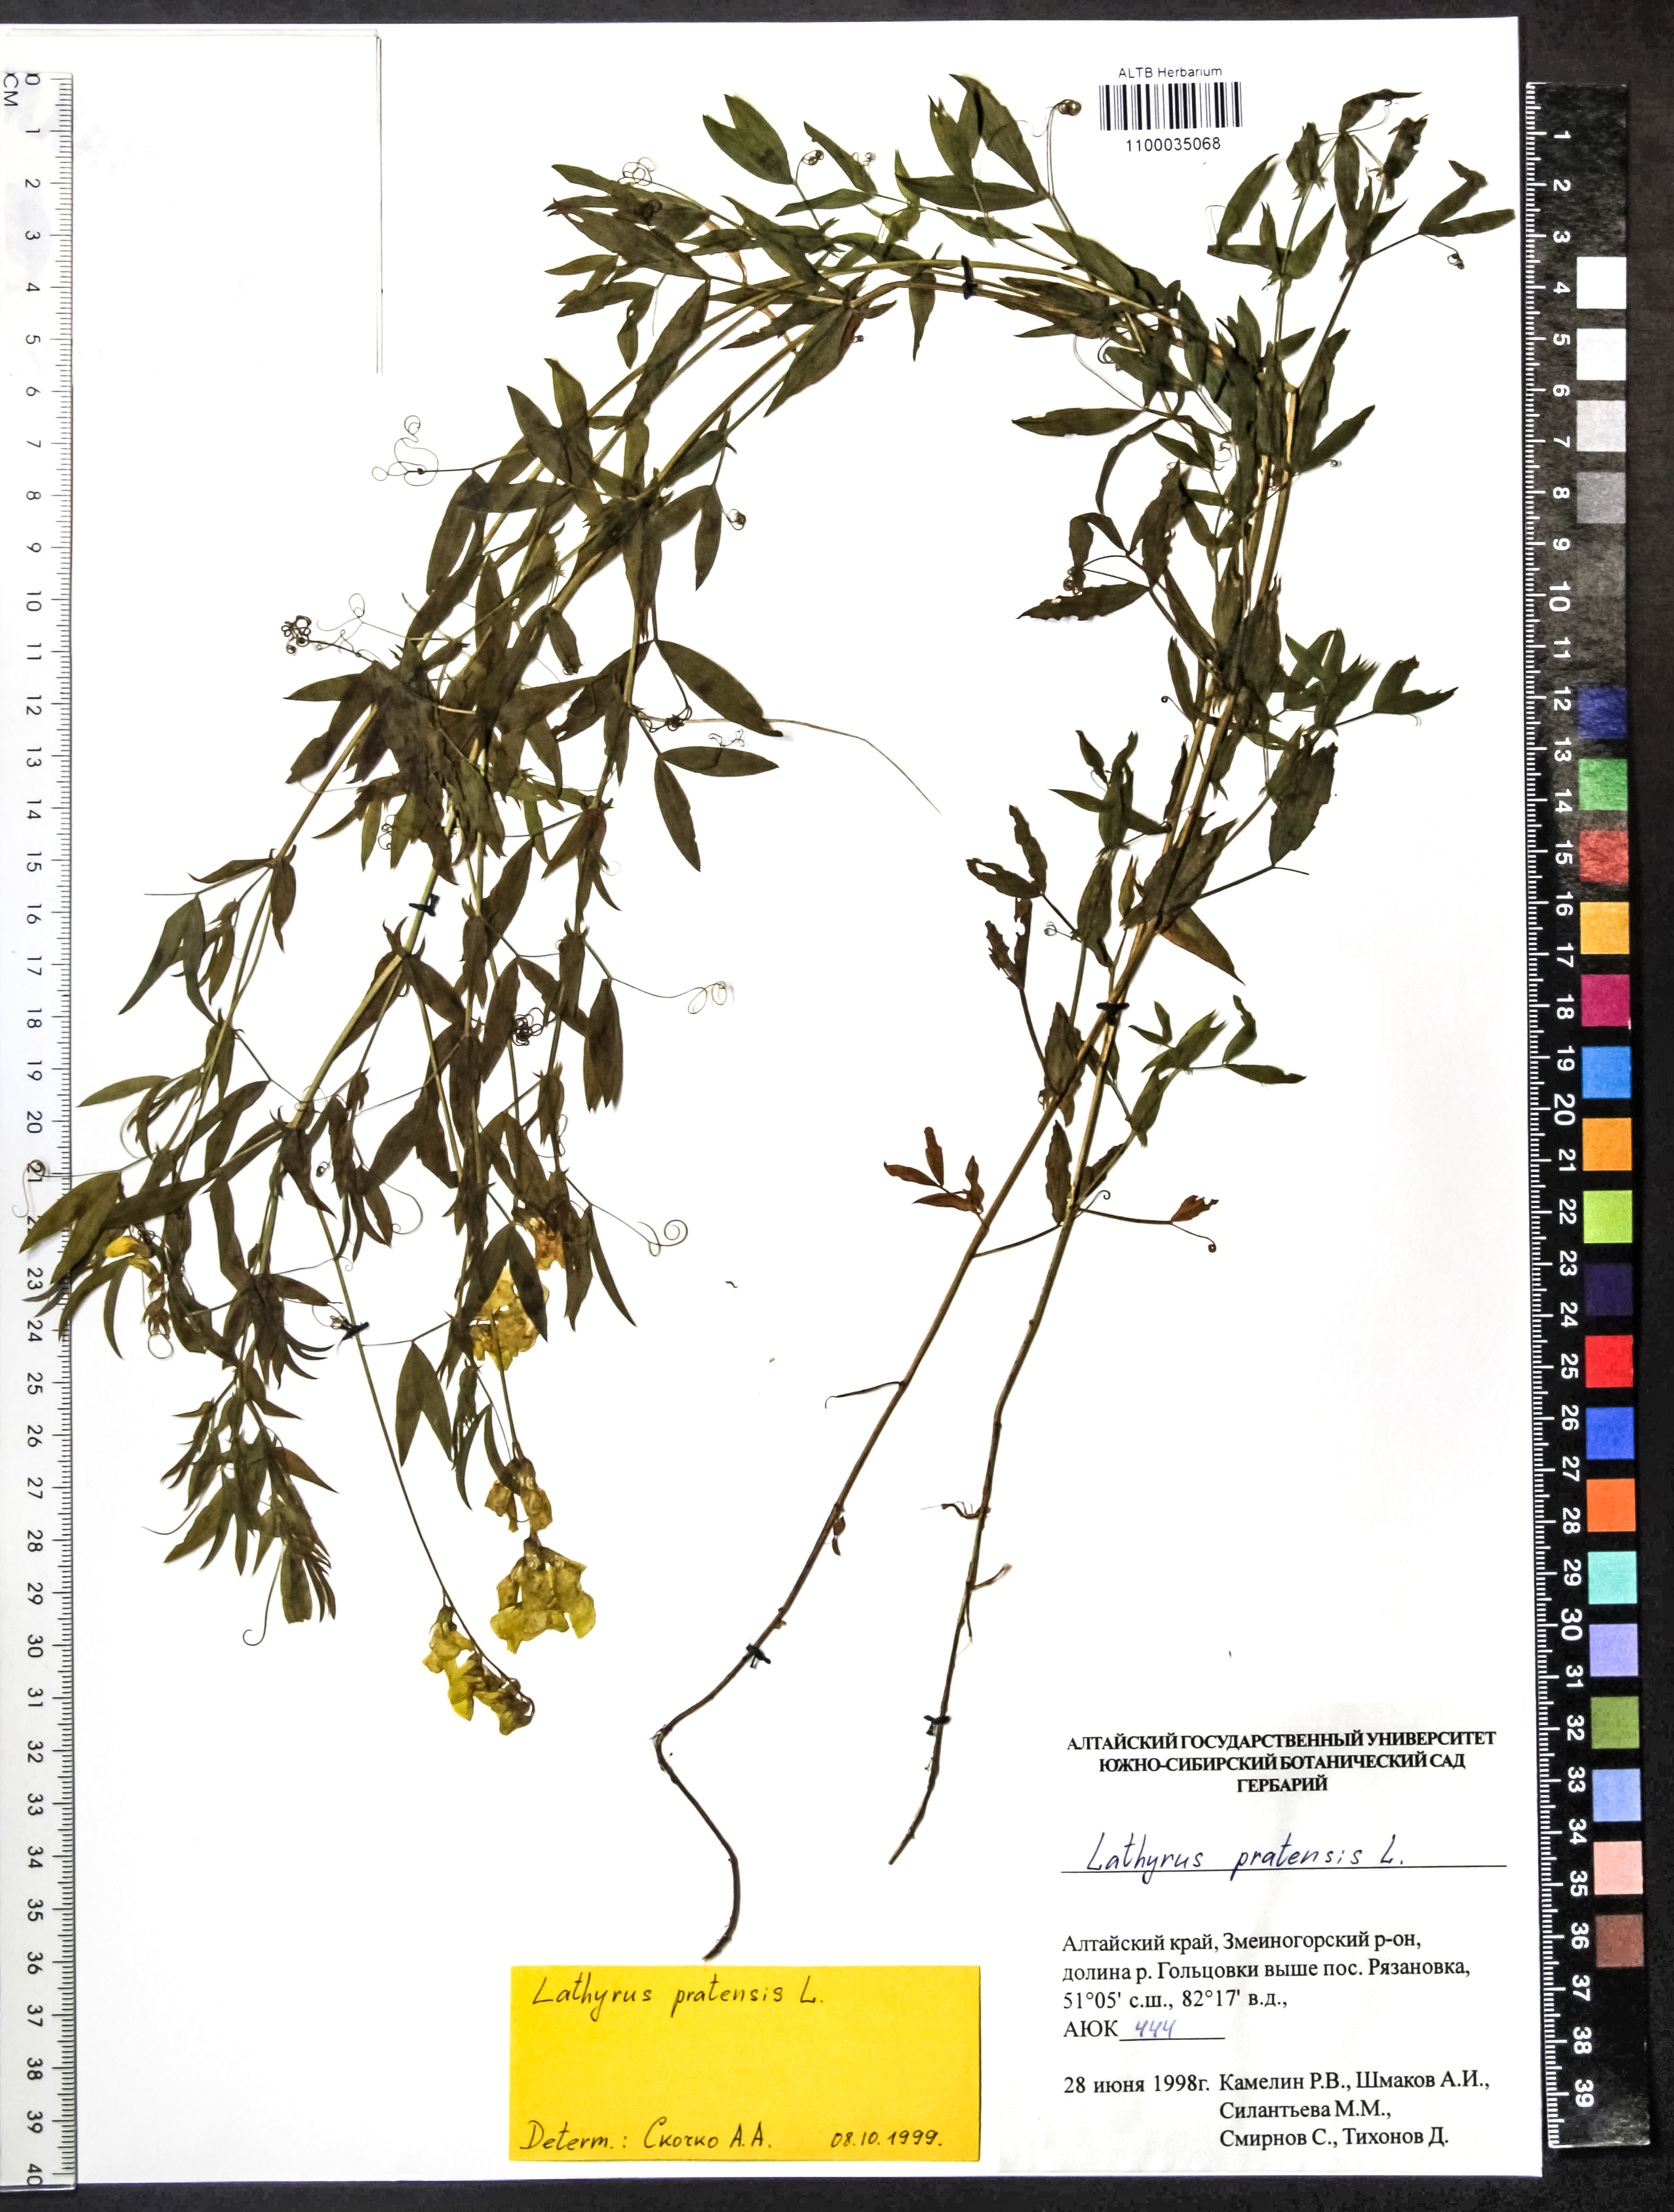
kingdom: Plantae
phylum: Tracheophyta
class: Magnoliopsida
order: Fabales
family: Fabaceae
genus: Lathyrus
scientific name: Lathyrus pratensis
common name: Meadow vetchling
